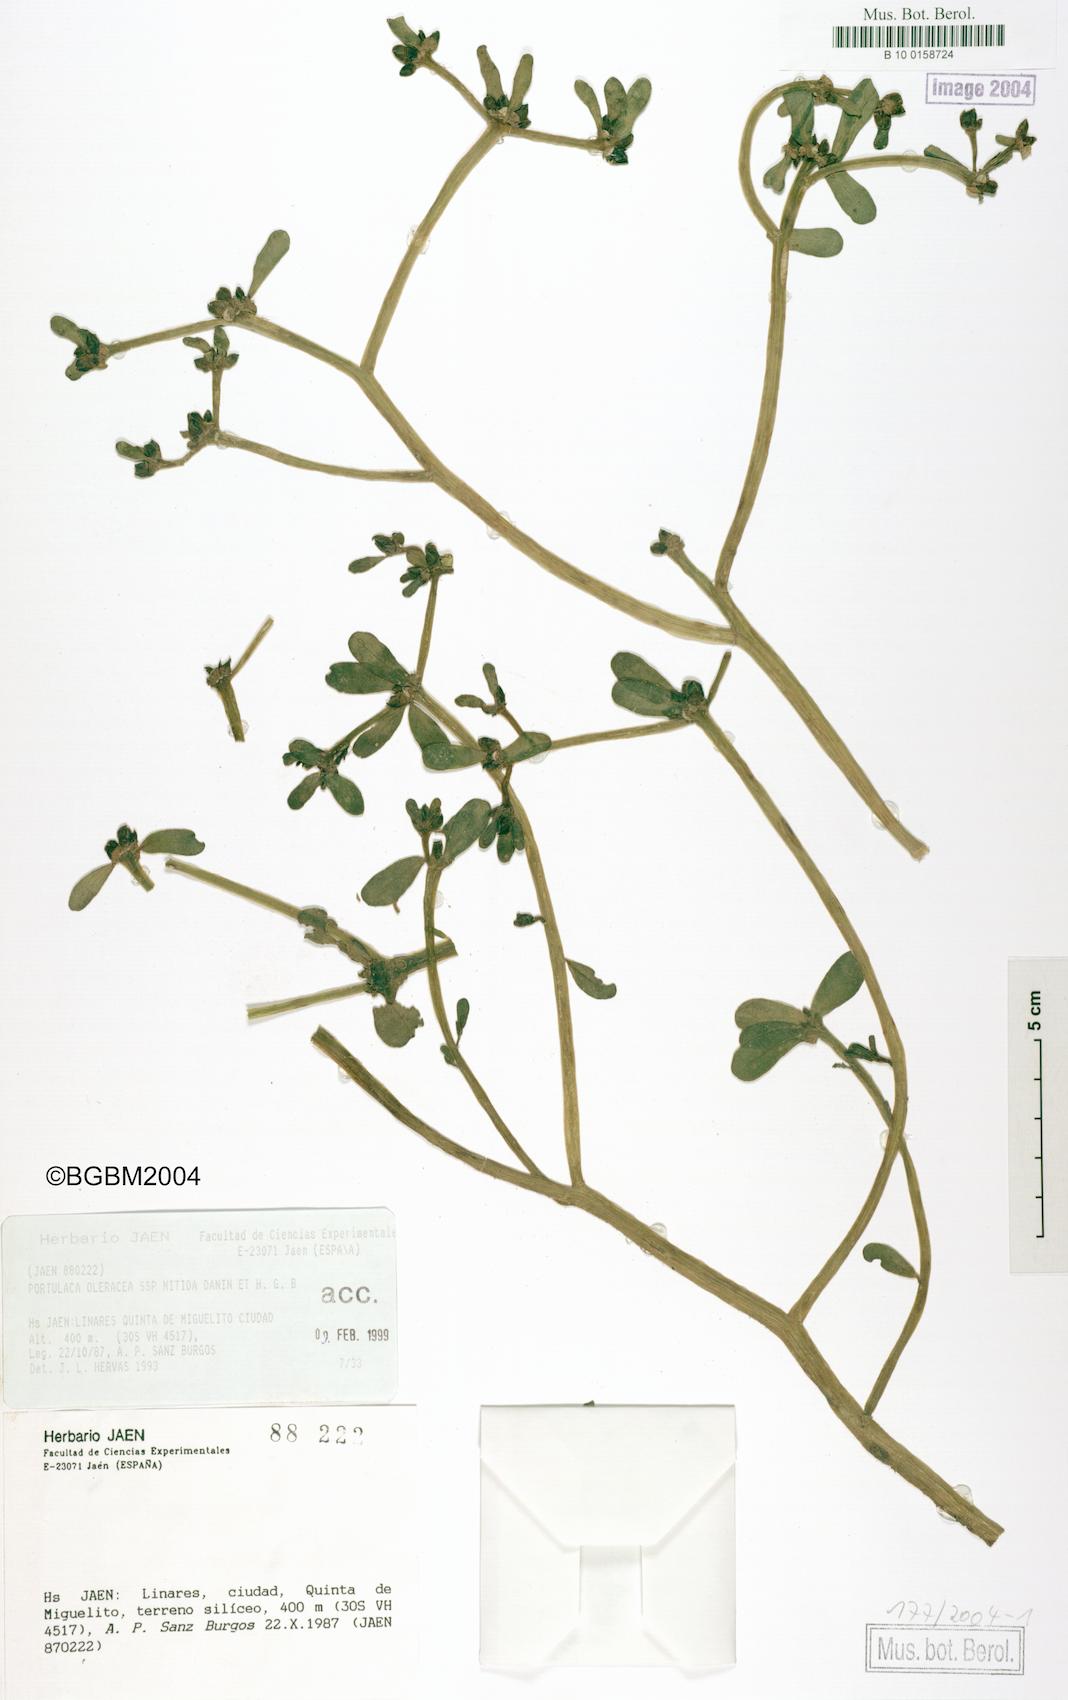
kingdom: Plantae
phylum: Tracheophyta
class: Magnoliopsida
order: Caryophyllales
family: Portulacaceae
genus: Portulaca
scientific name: Portulaca nitida
